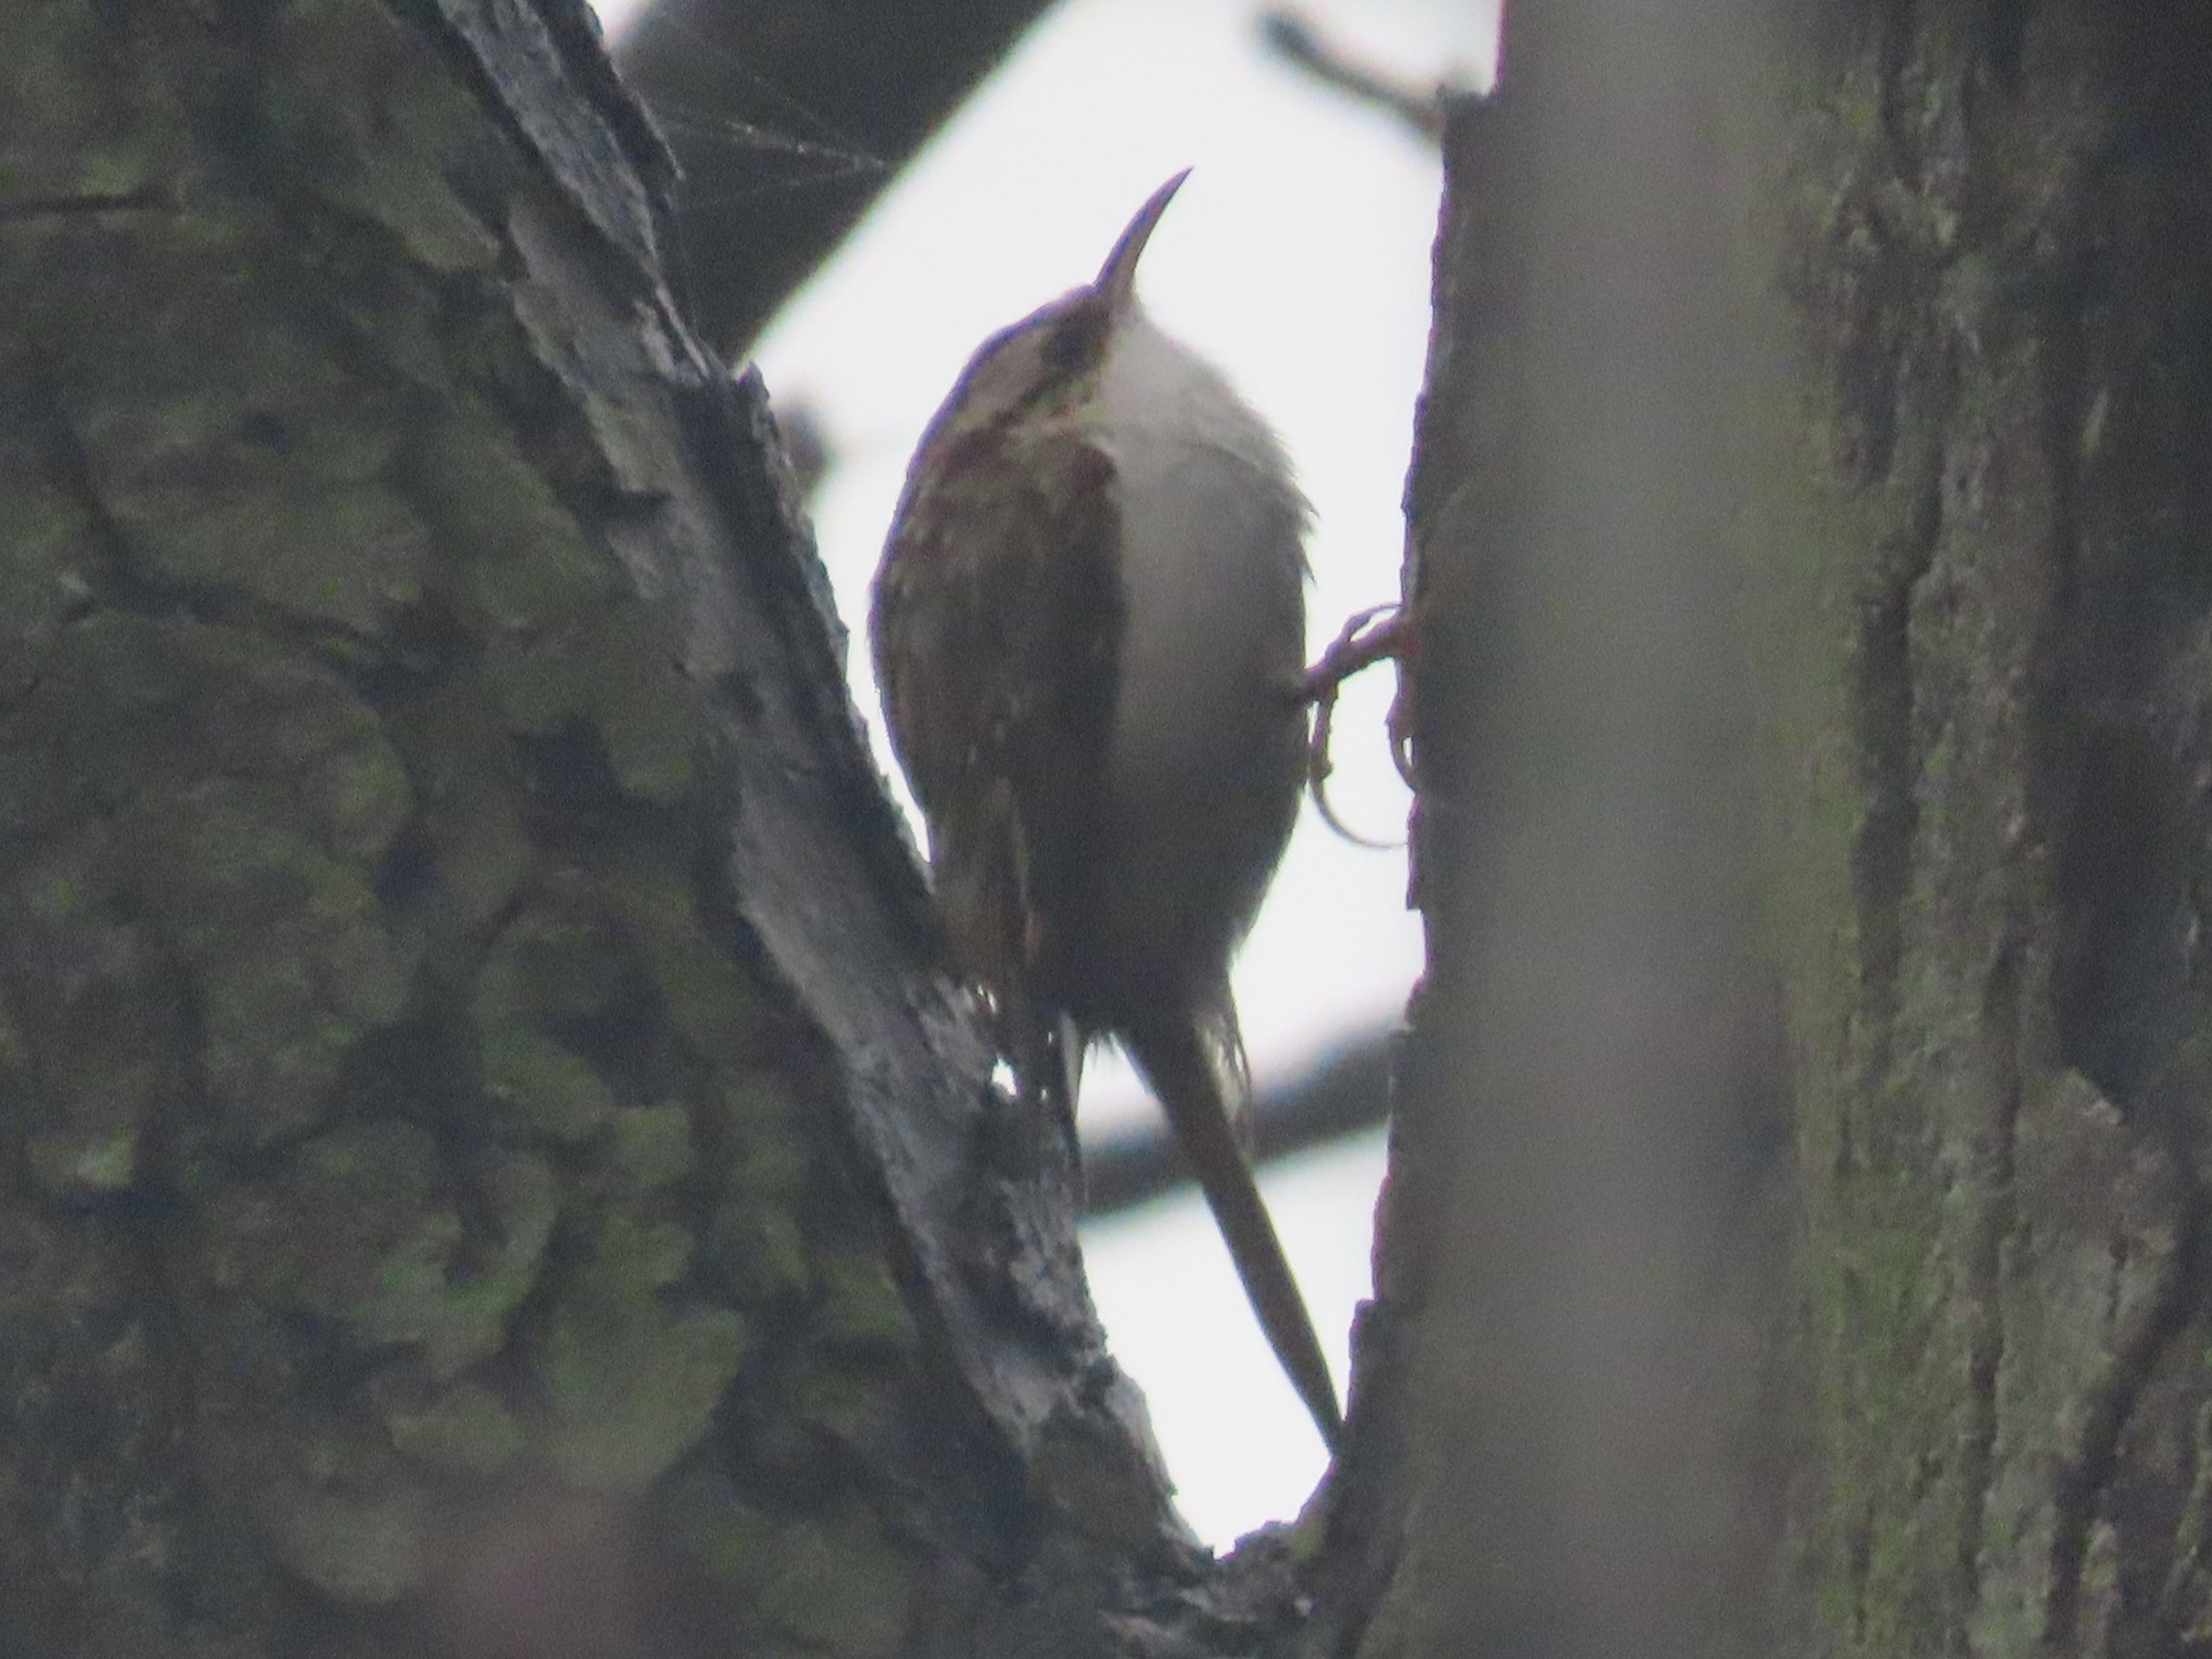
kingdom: Animalia
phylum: Chordata
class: Aves
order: Passeriformes
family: Certhiidae
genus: Certhia
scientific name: Certhia familiaris
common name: Træløber
